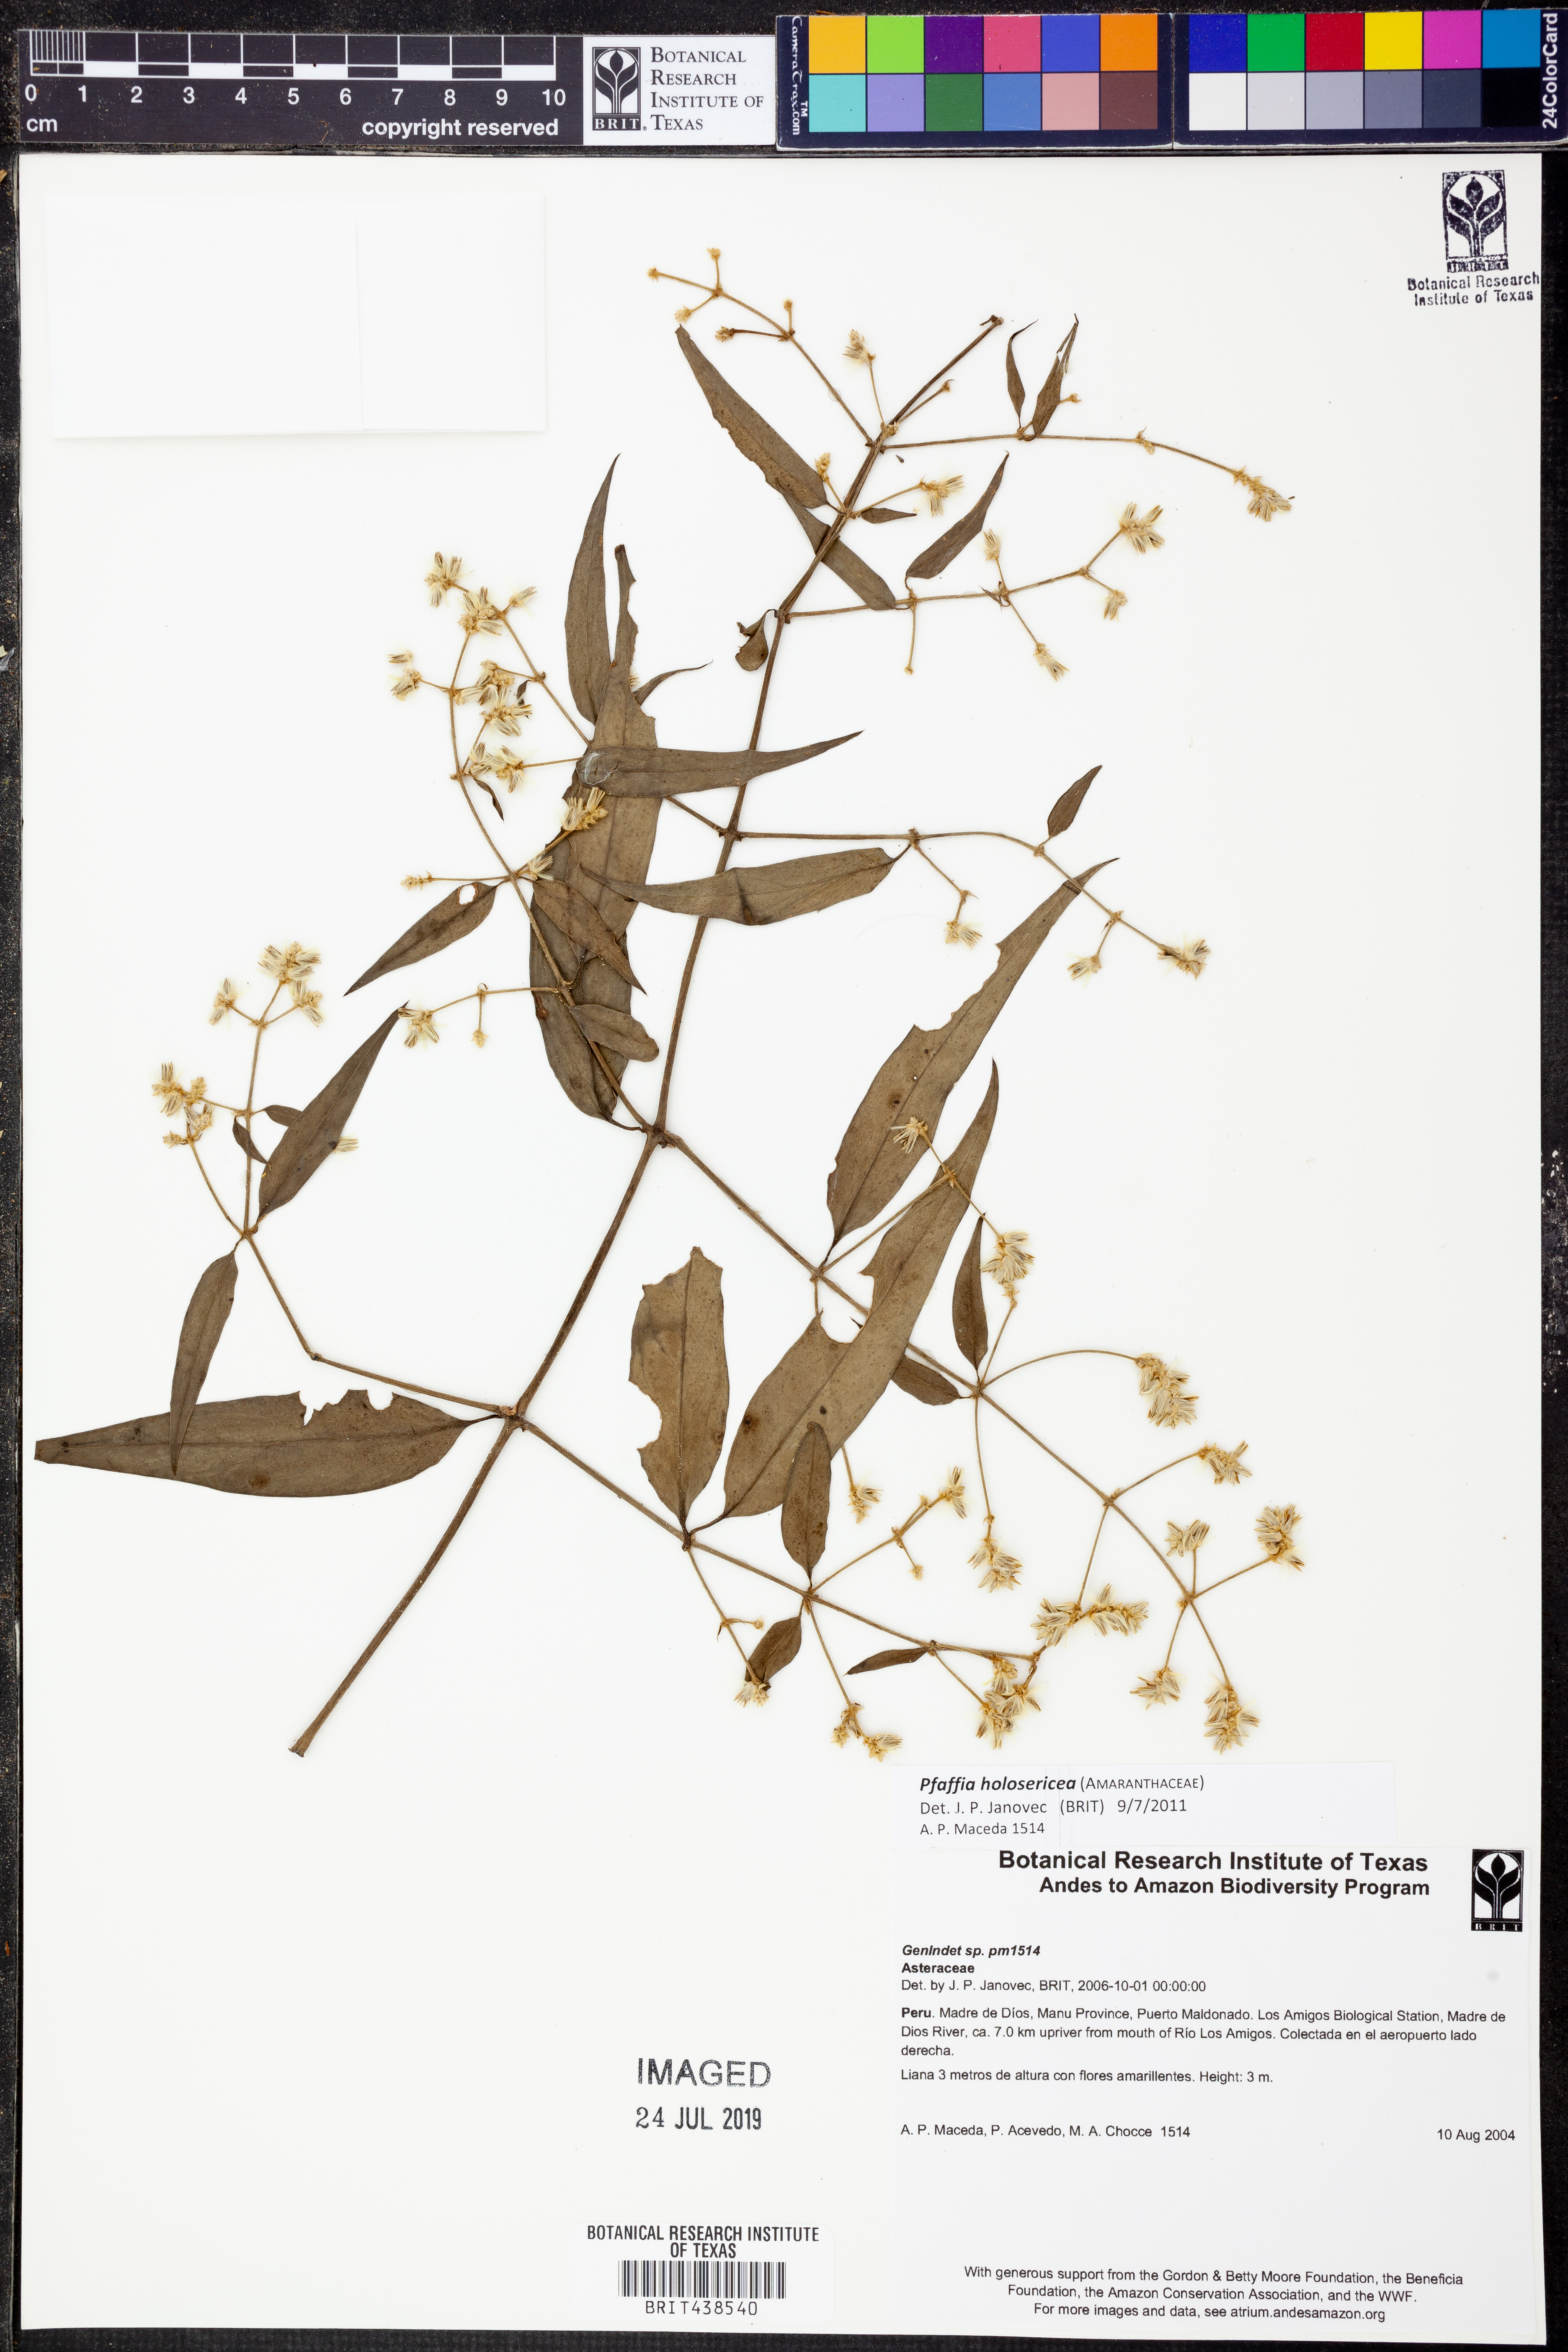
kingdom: Plantae
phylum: Tracheophyta
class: Magnoliopsida
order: Caryophyllales
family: Amaranthaceae
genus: Pfaffia
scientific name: Pfaffia
